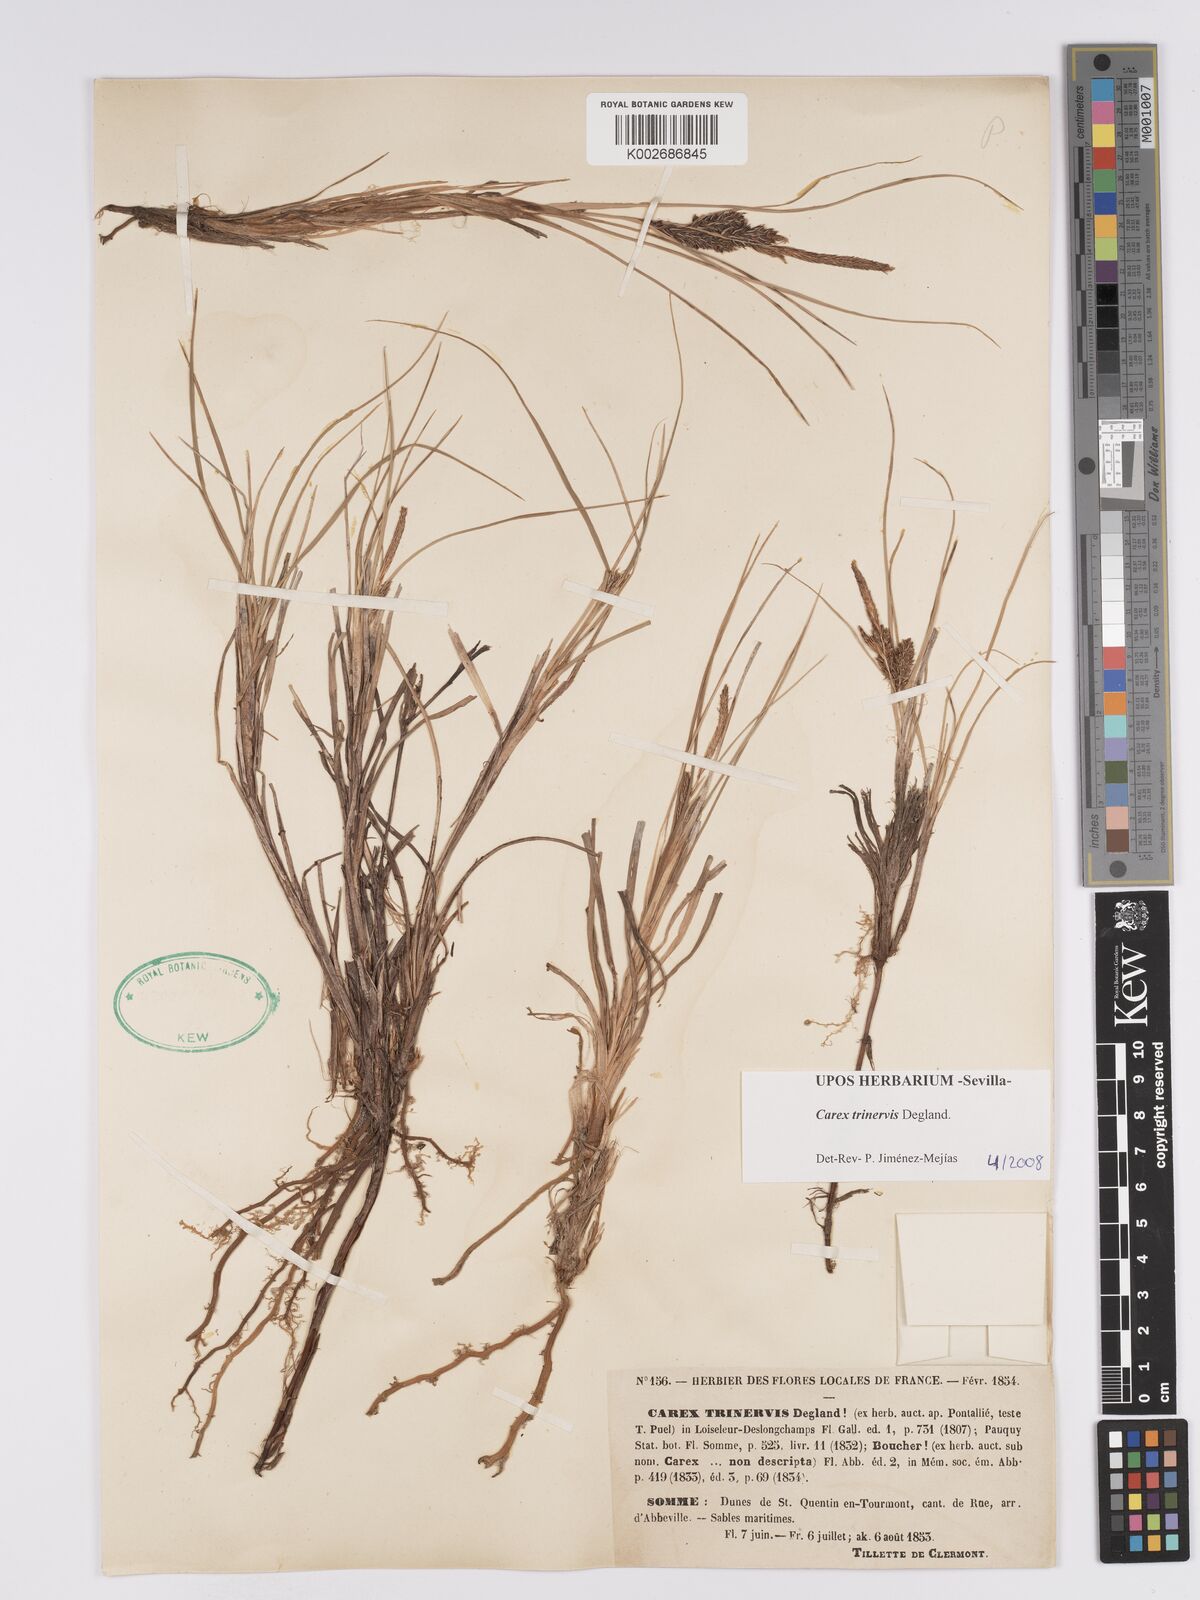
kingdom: Plantae
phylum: Tracheophyta
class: Liliopsida
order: Poales
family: Cyperaceae
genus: Carex
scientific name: Carex trinervis
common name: Three-nerved sedge
